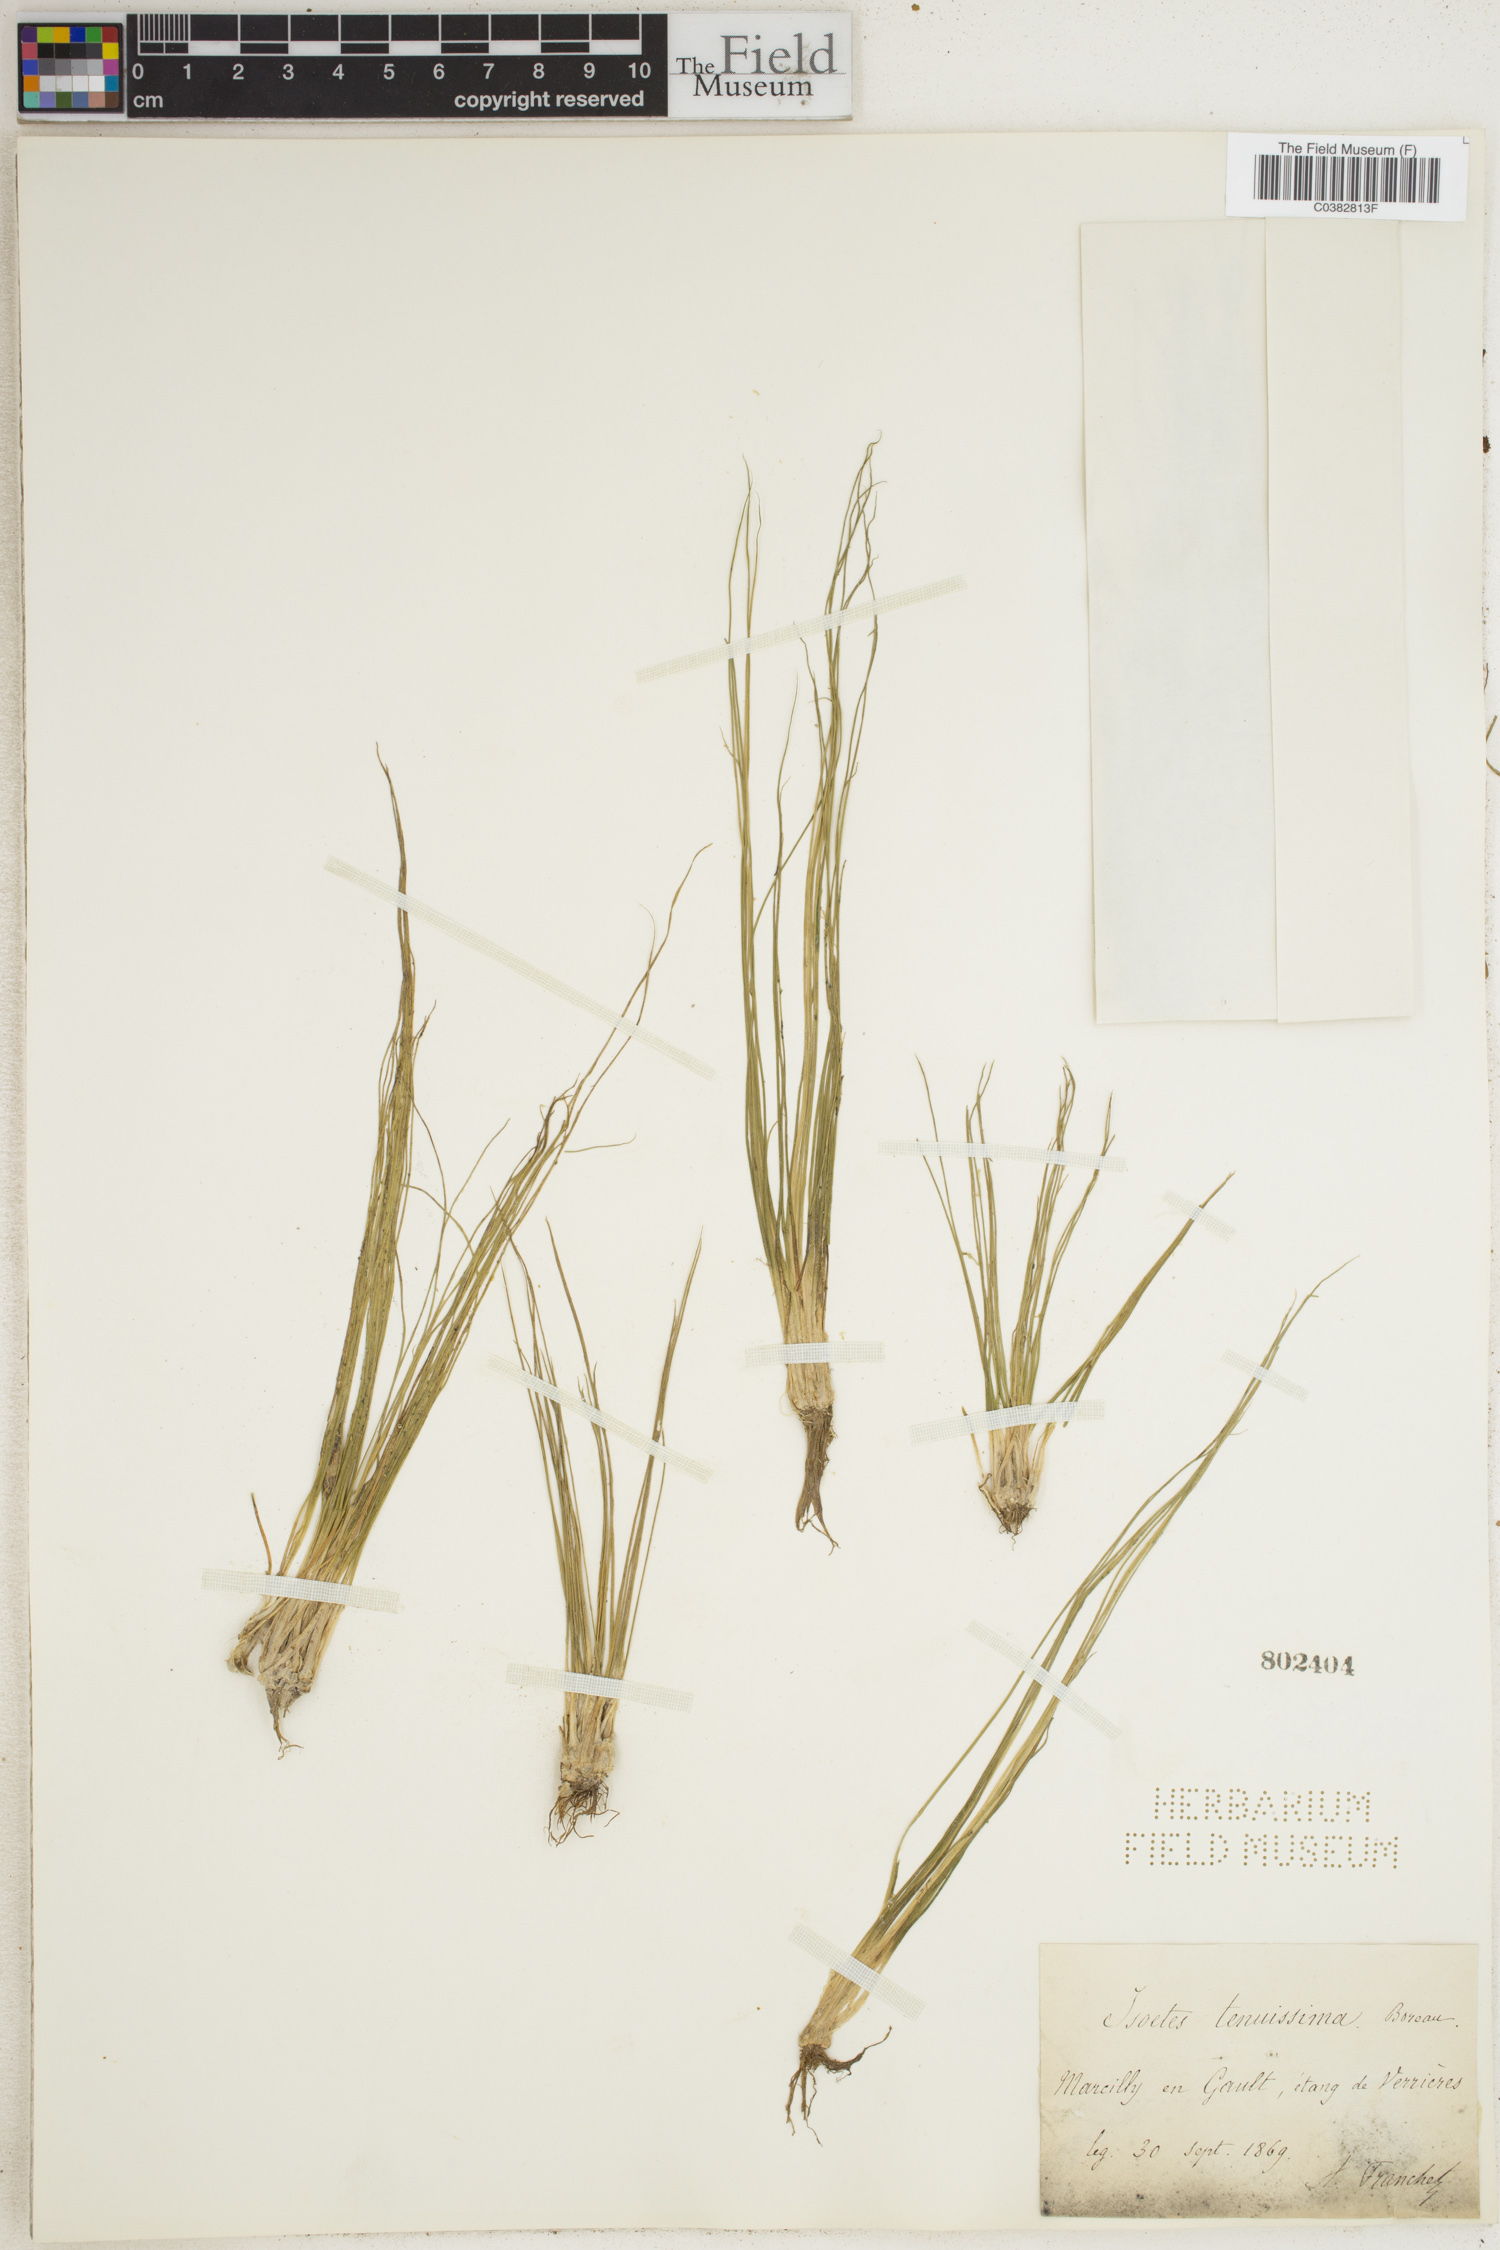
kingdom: Plantae
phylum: Tracheophyta
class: Lycopodiopsida
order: Isoetales
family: Isoetaceae
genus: Isoetes
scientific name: Isoetes longissima
